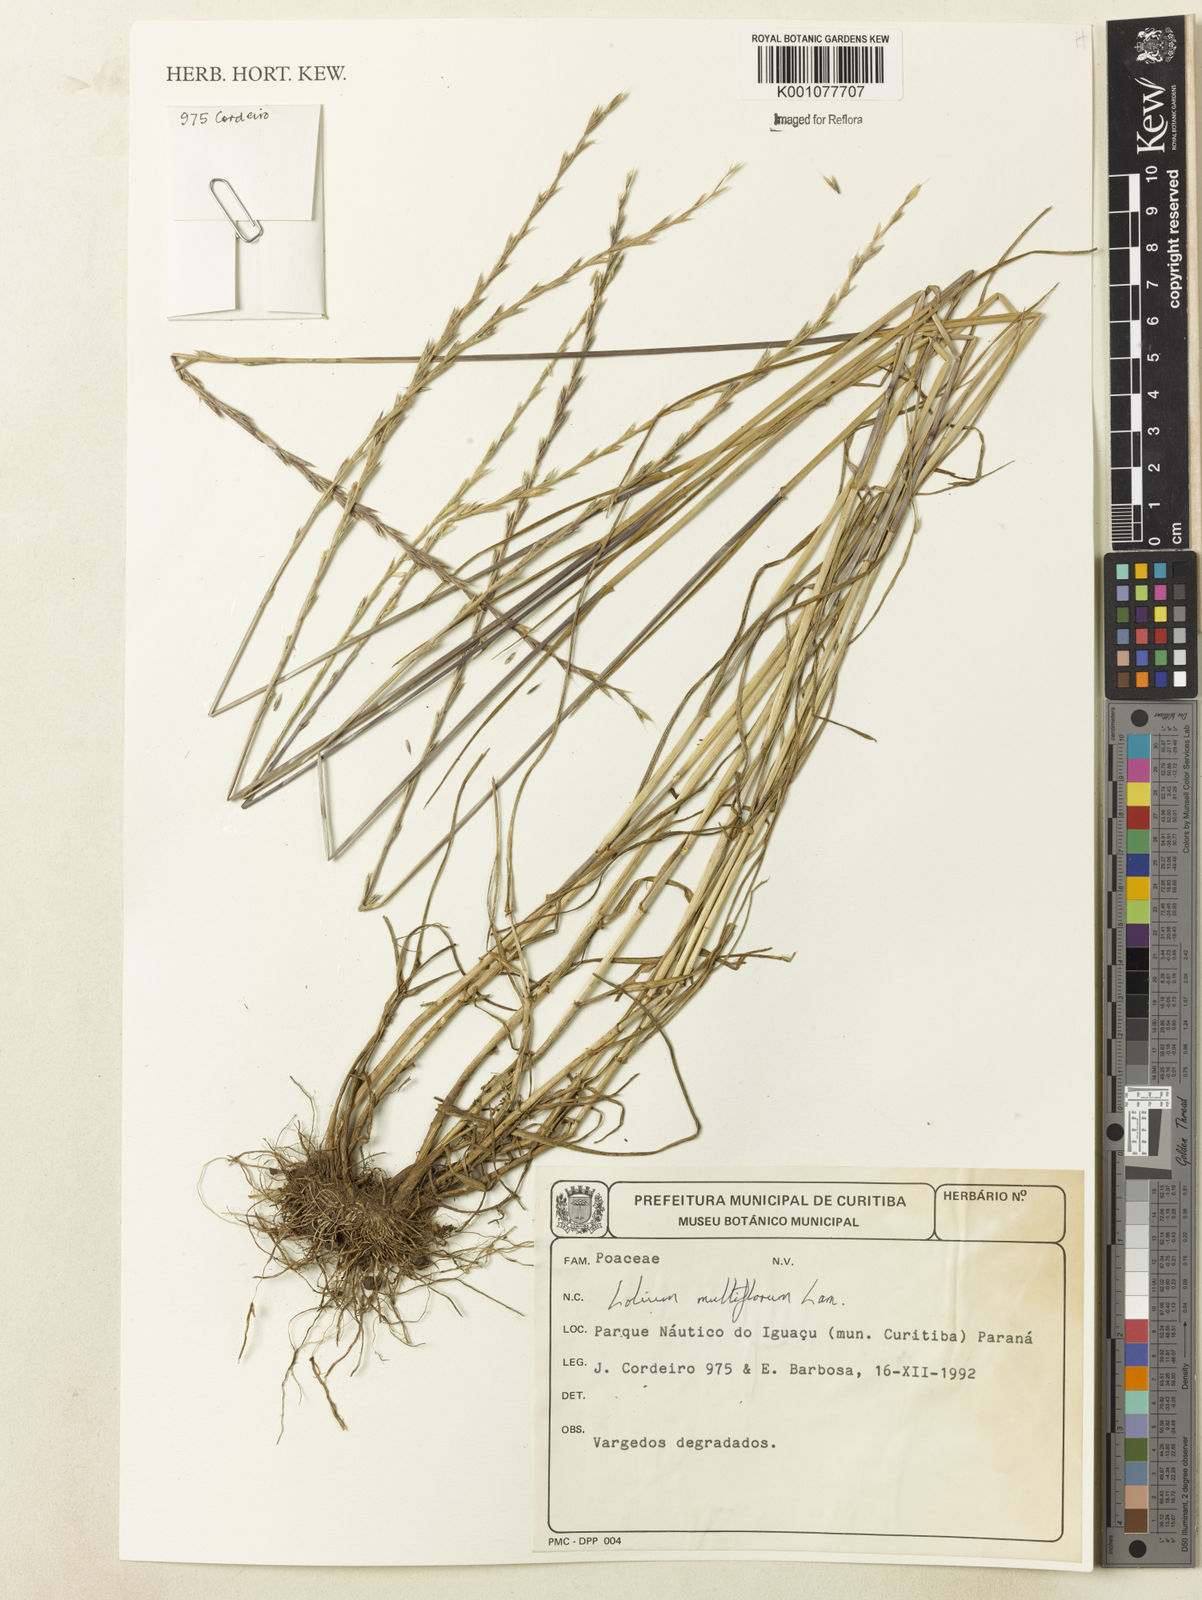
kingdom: Plantae
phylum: Tracheophyta
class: Liliopsida
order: Poales
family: Poaceae
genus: Lolium
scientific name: Lolium multiflorum
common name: Annual ryegrass
